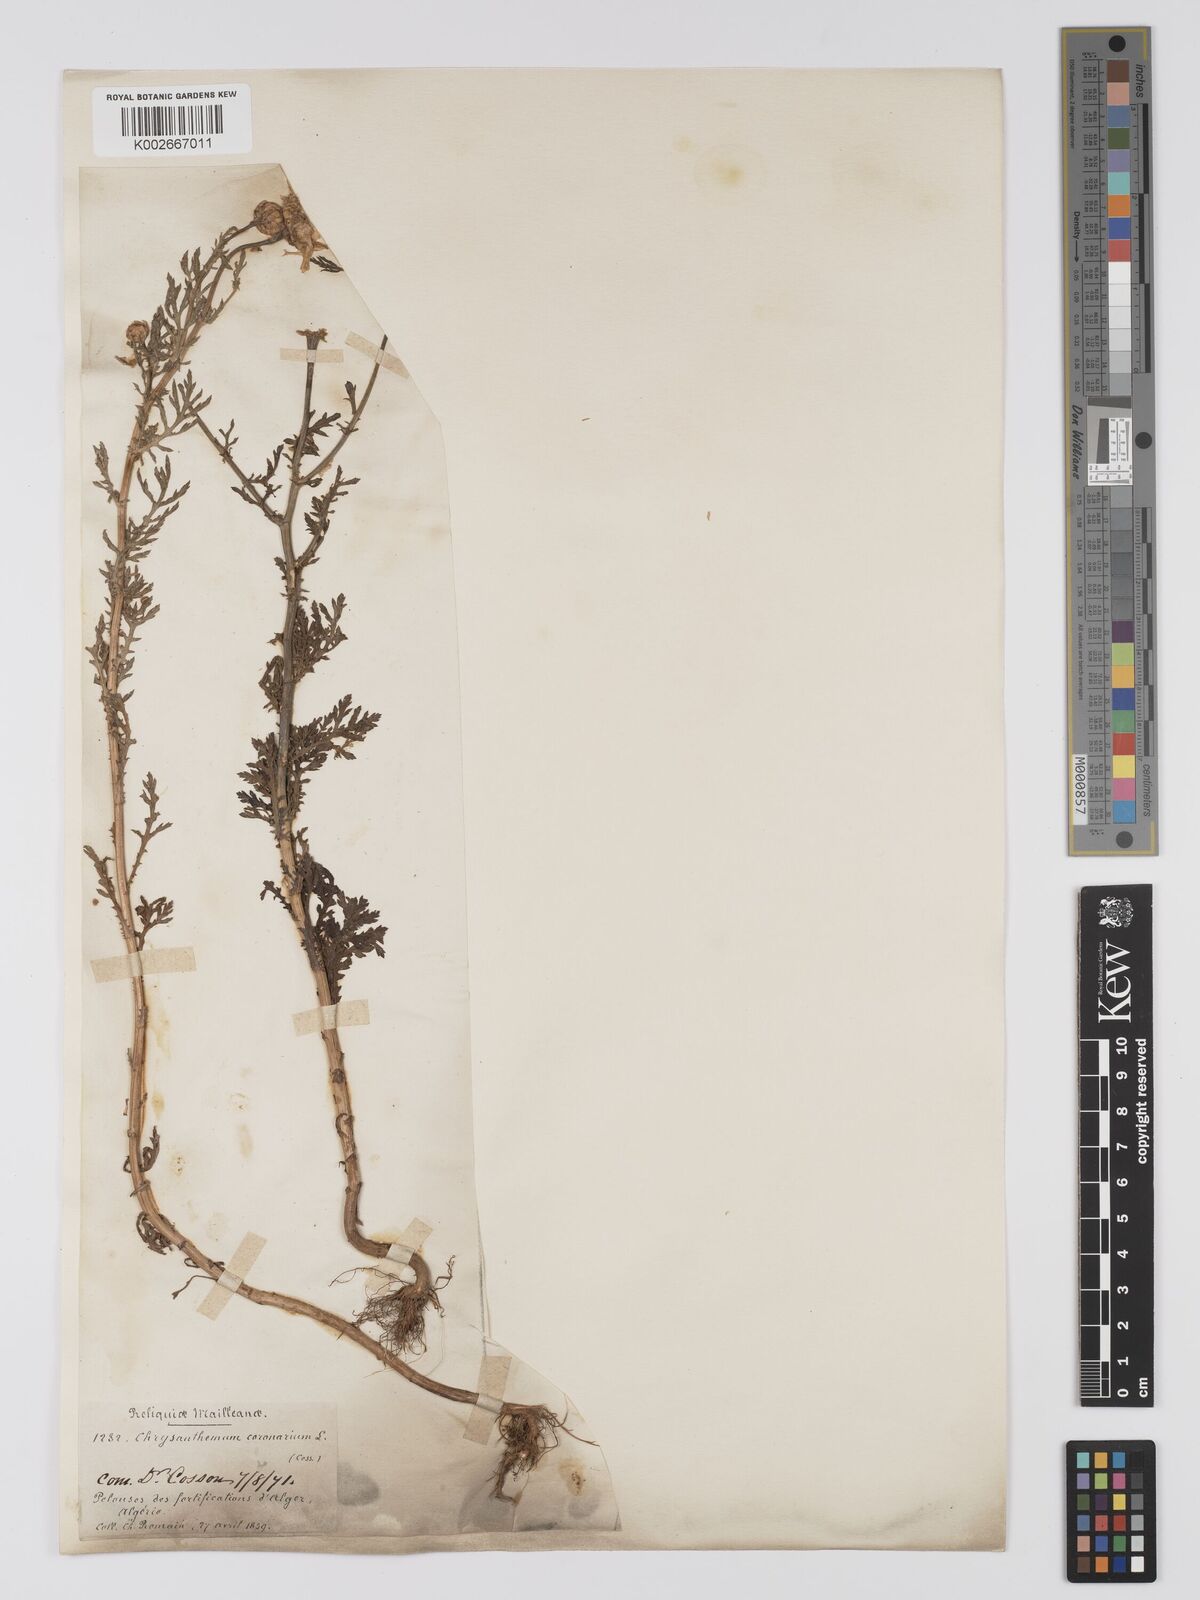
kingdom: Plantae
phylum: Tracheophyta
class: Magnoliopsida
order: Asterales
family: Asteraceae
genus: Glebionis
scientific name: Glebionis
